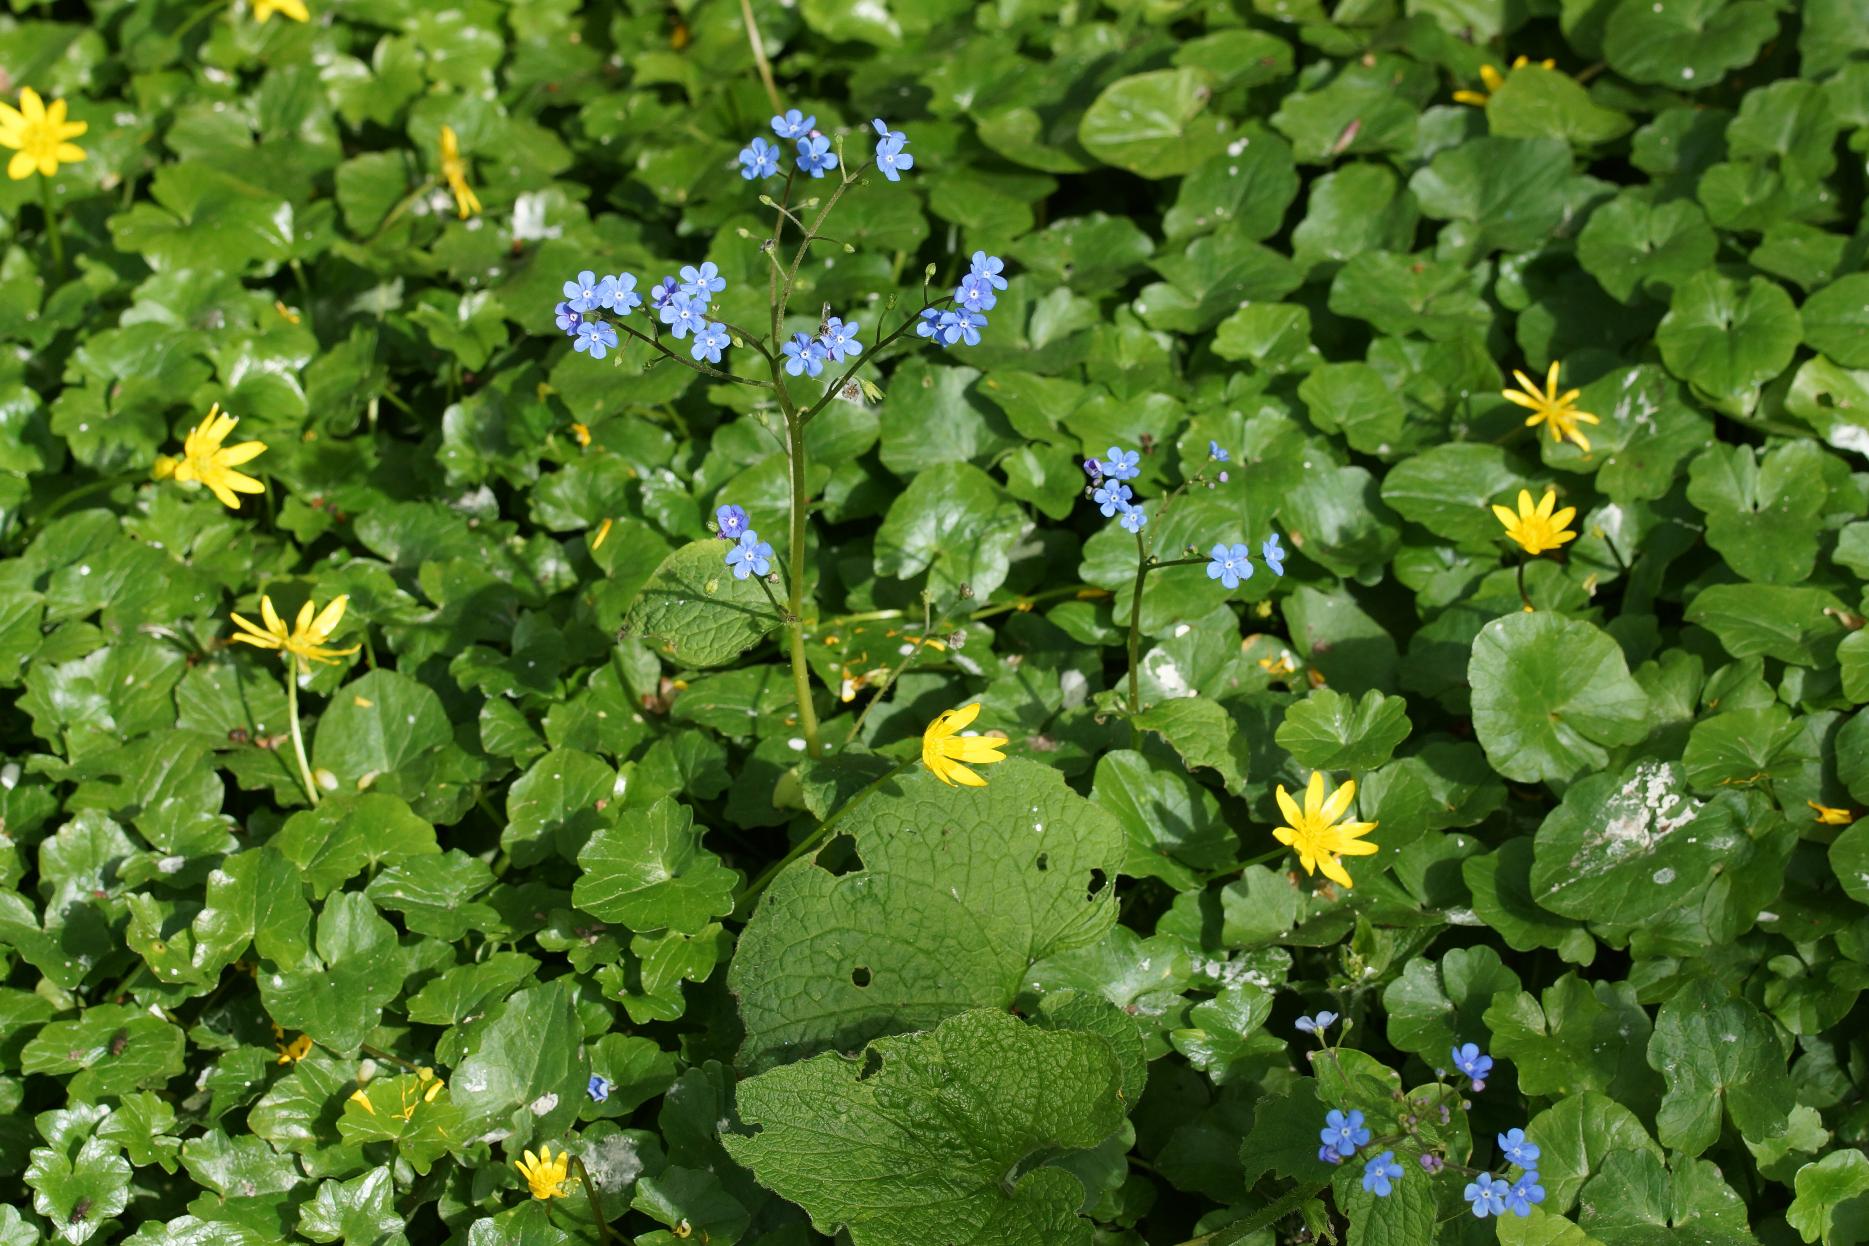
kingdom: Plantae
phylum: Tracheophyta
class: Magnoliopsida
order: Boraginales
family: Boraginaceae
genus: Brunnera
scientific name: Brunnera macrophylla
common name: Kærmindesøster
